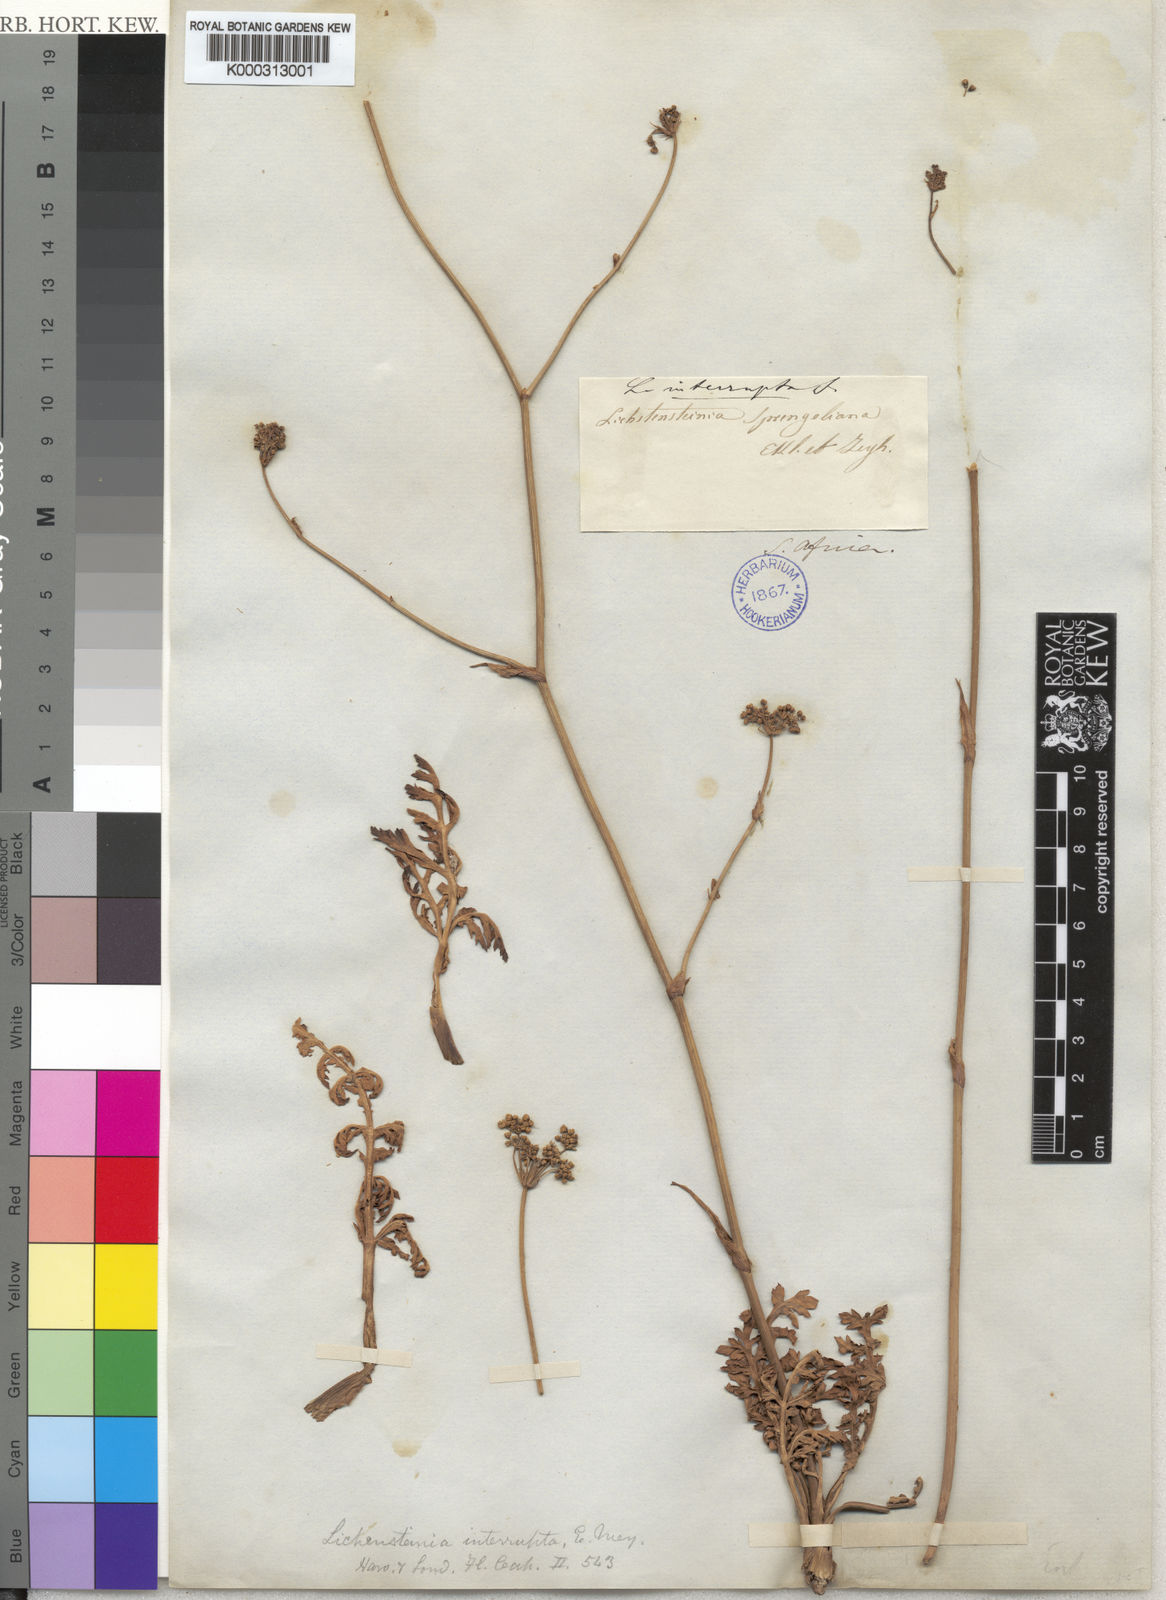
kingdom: Plantae
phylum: Tracheophyta
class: Magnoliopsida
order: Apiales
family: Apiaceae
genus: Lichtensteinia
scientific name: Lichtensteinia interrupta
